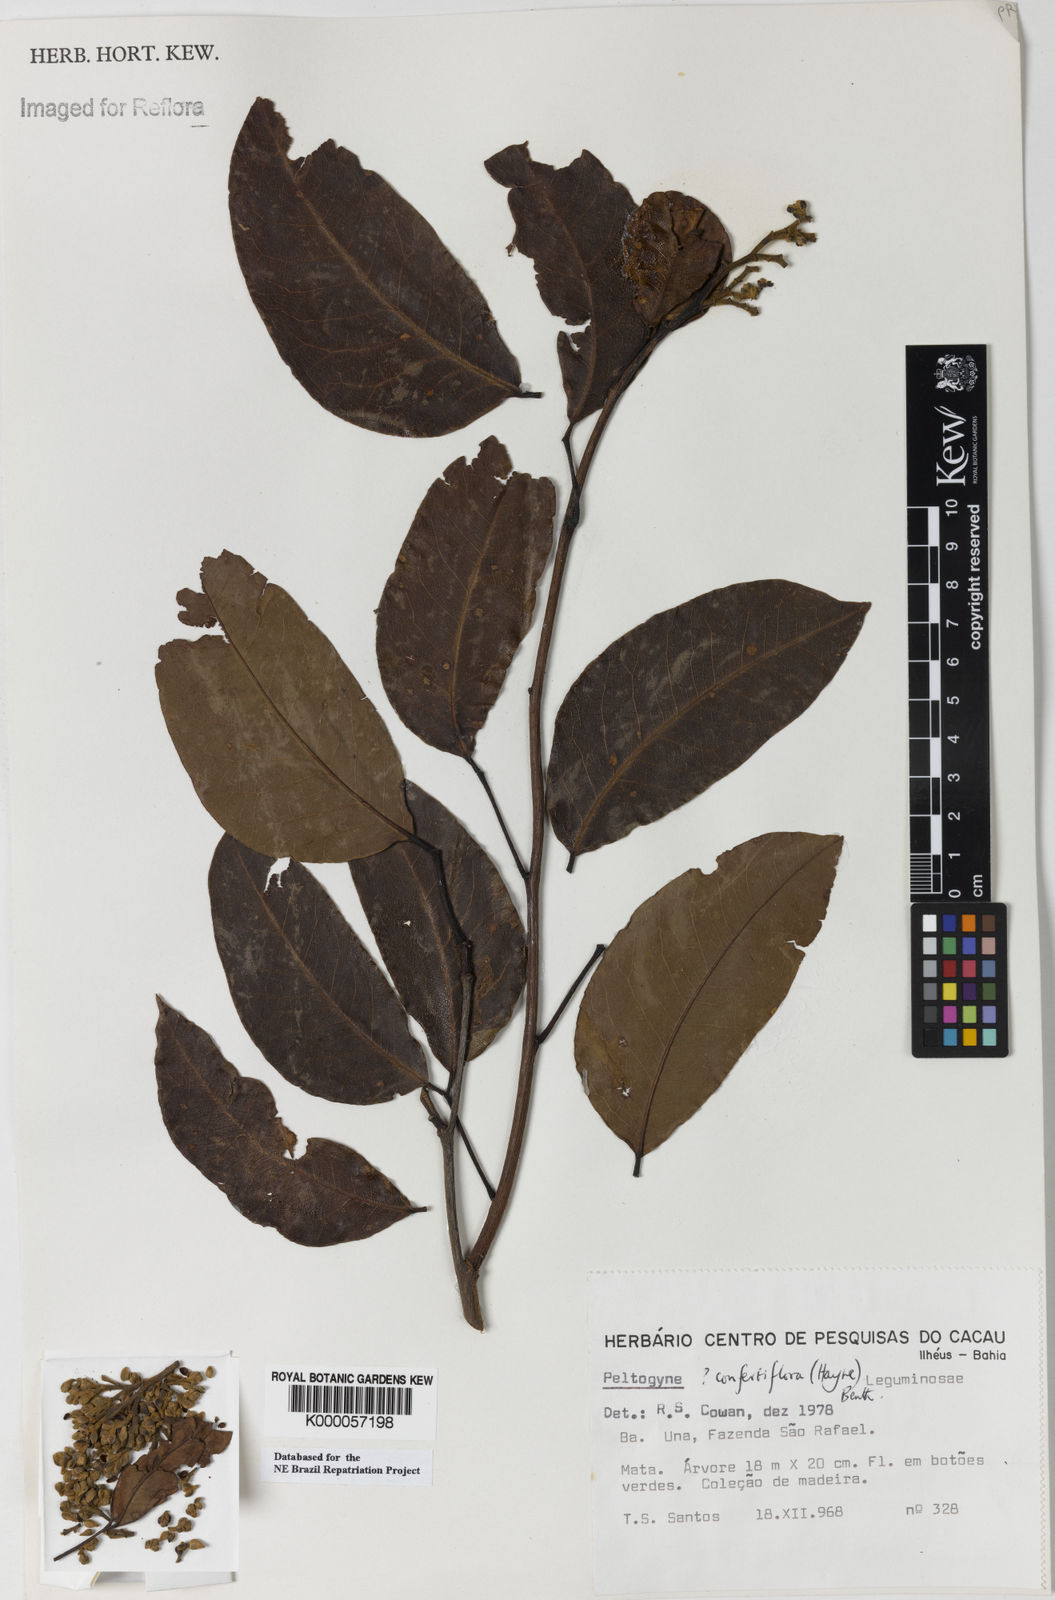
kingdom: Plantae
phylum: Tracheophyta
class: Magnoliopsida
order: Fabales
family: Fabaceae
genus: Peltogyne
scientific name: Peltogyne confertiflora
